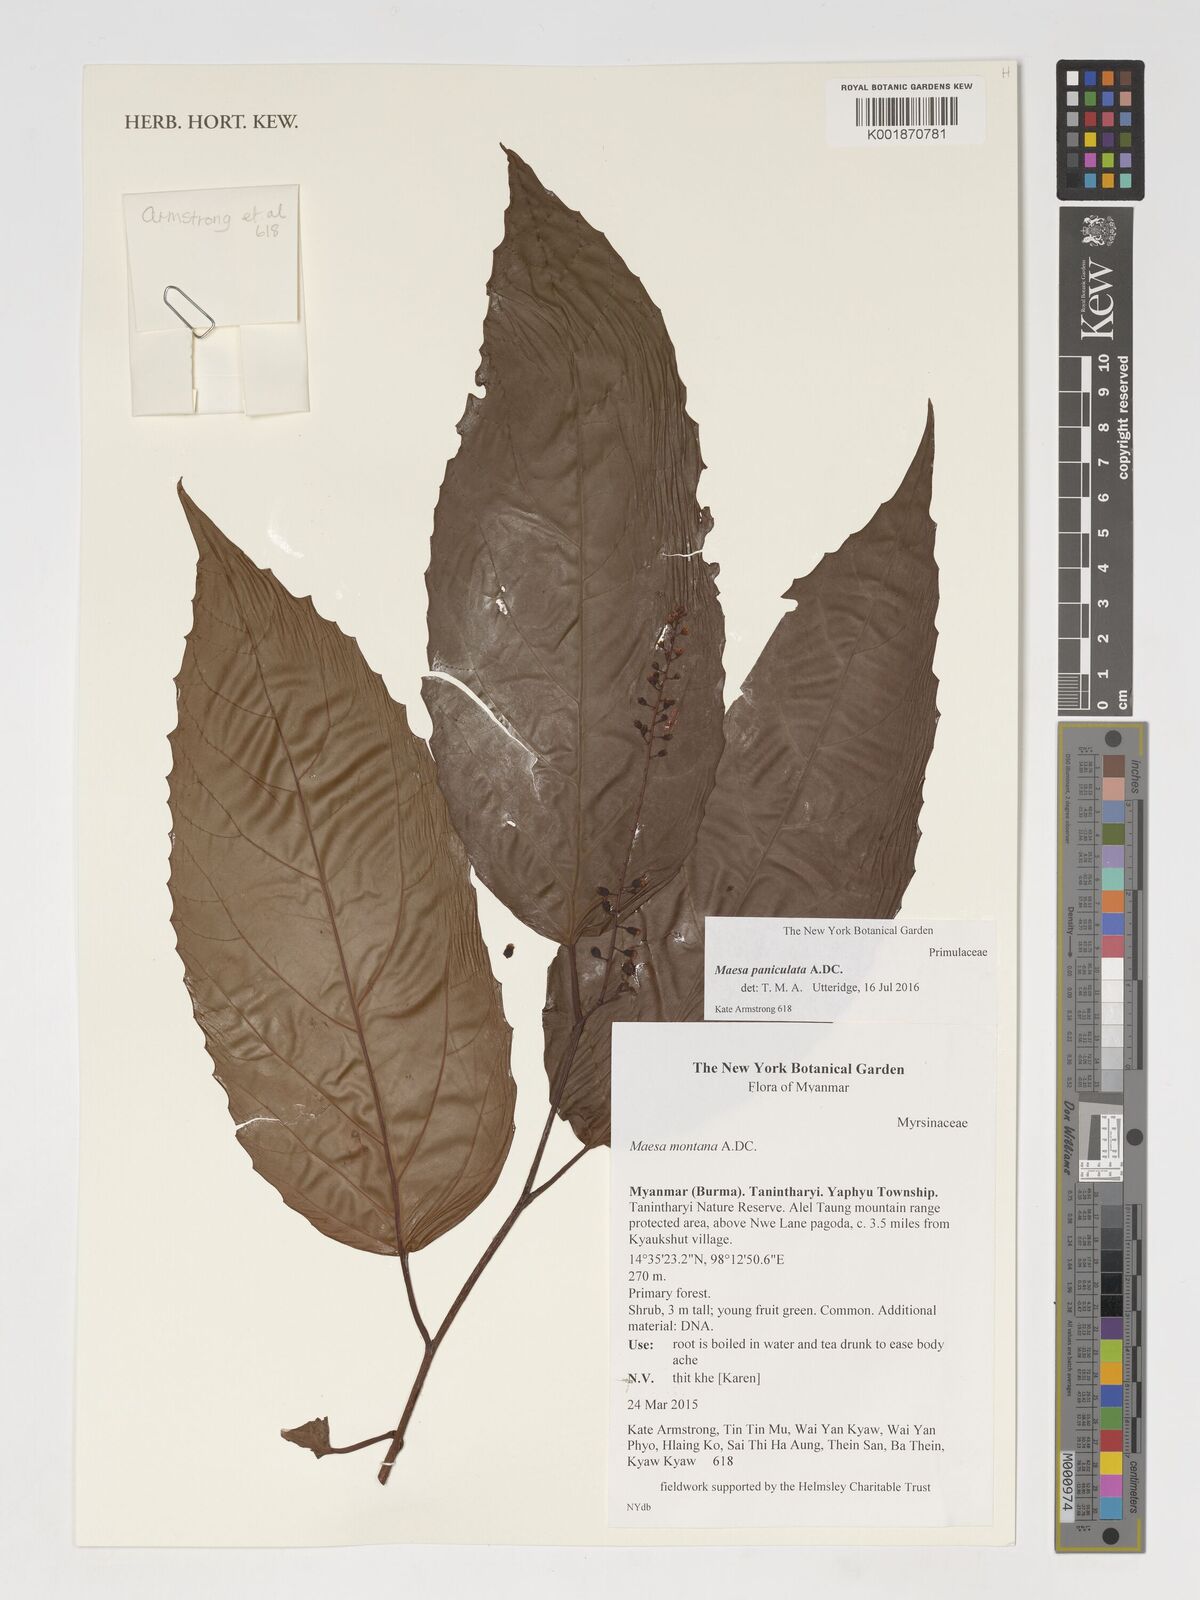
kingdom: Plantae
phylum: Tracheophyta
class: Magnoliopsida
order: Ericales
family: Primulaceae
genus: Maesa
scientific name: Maesa paniculata
